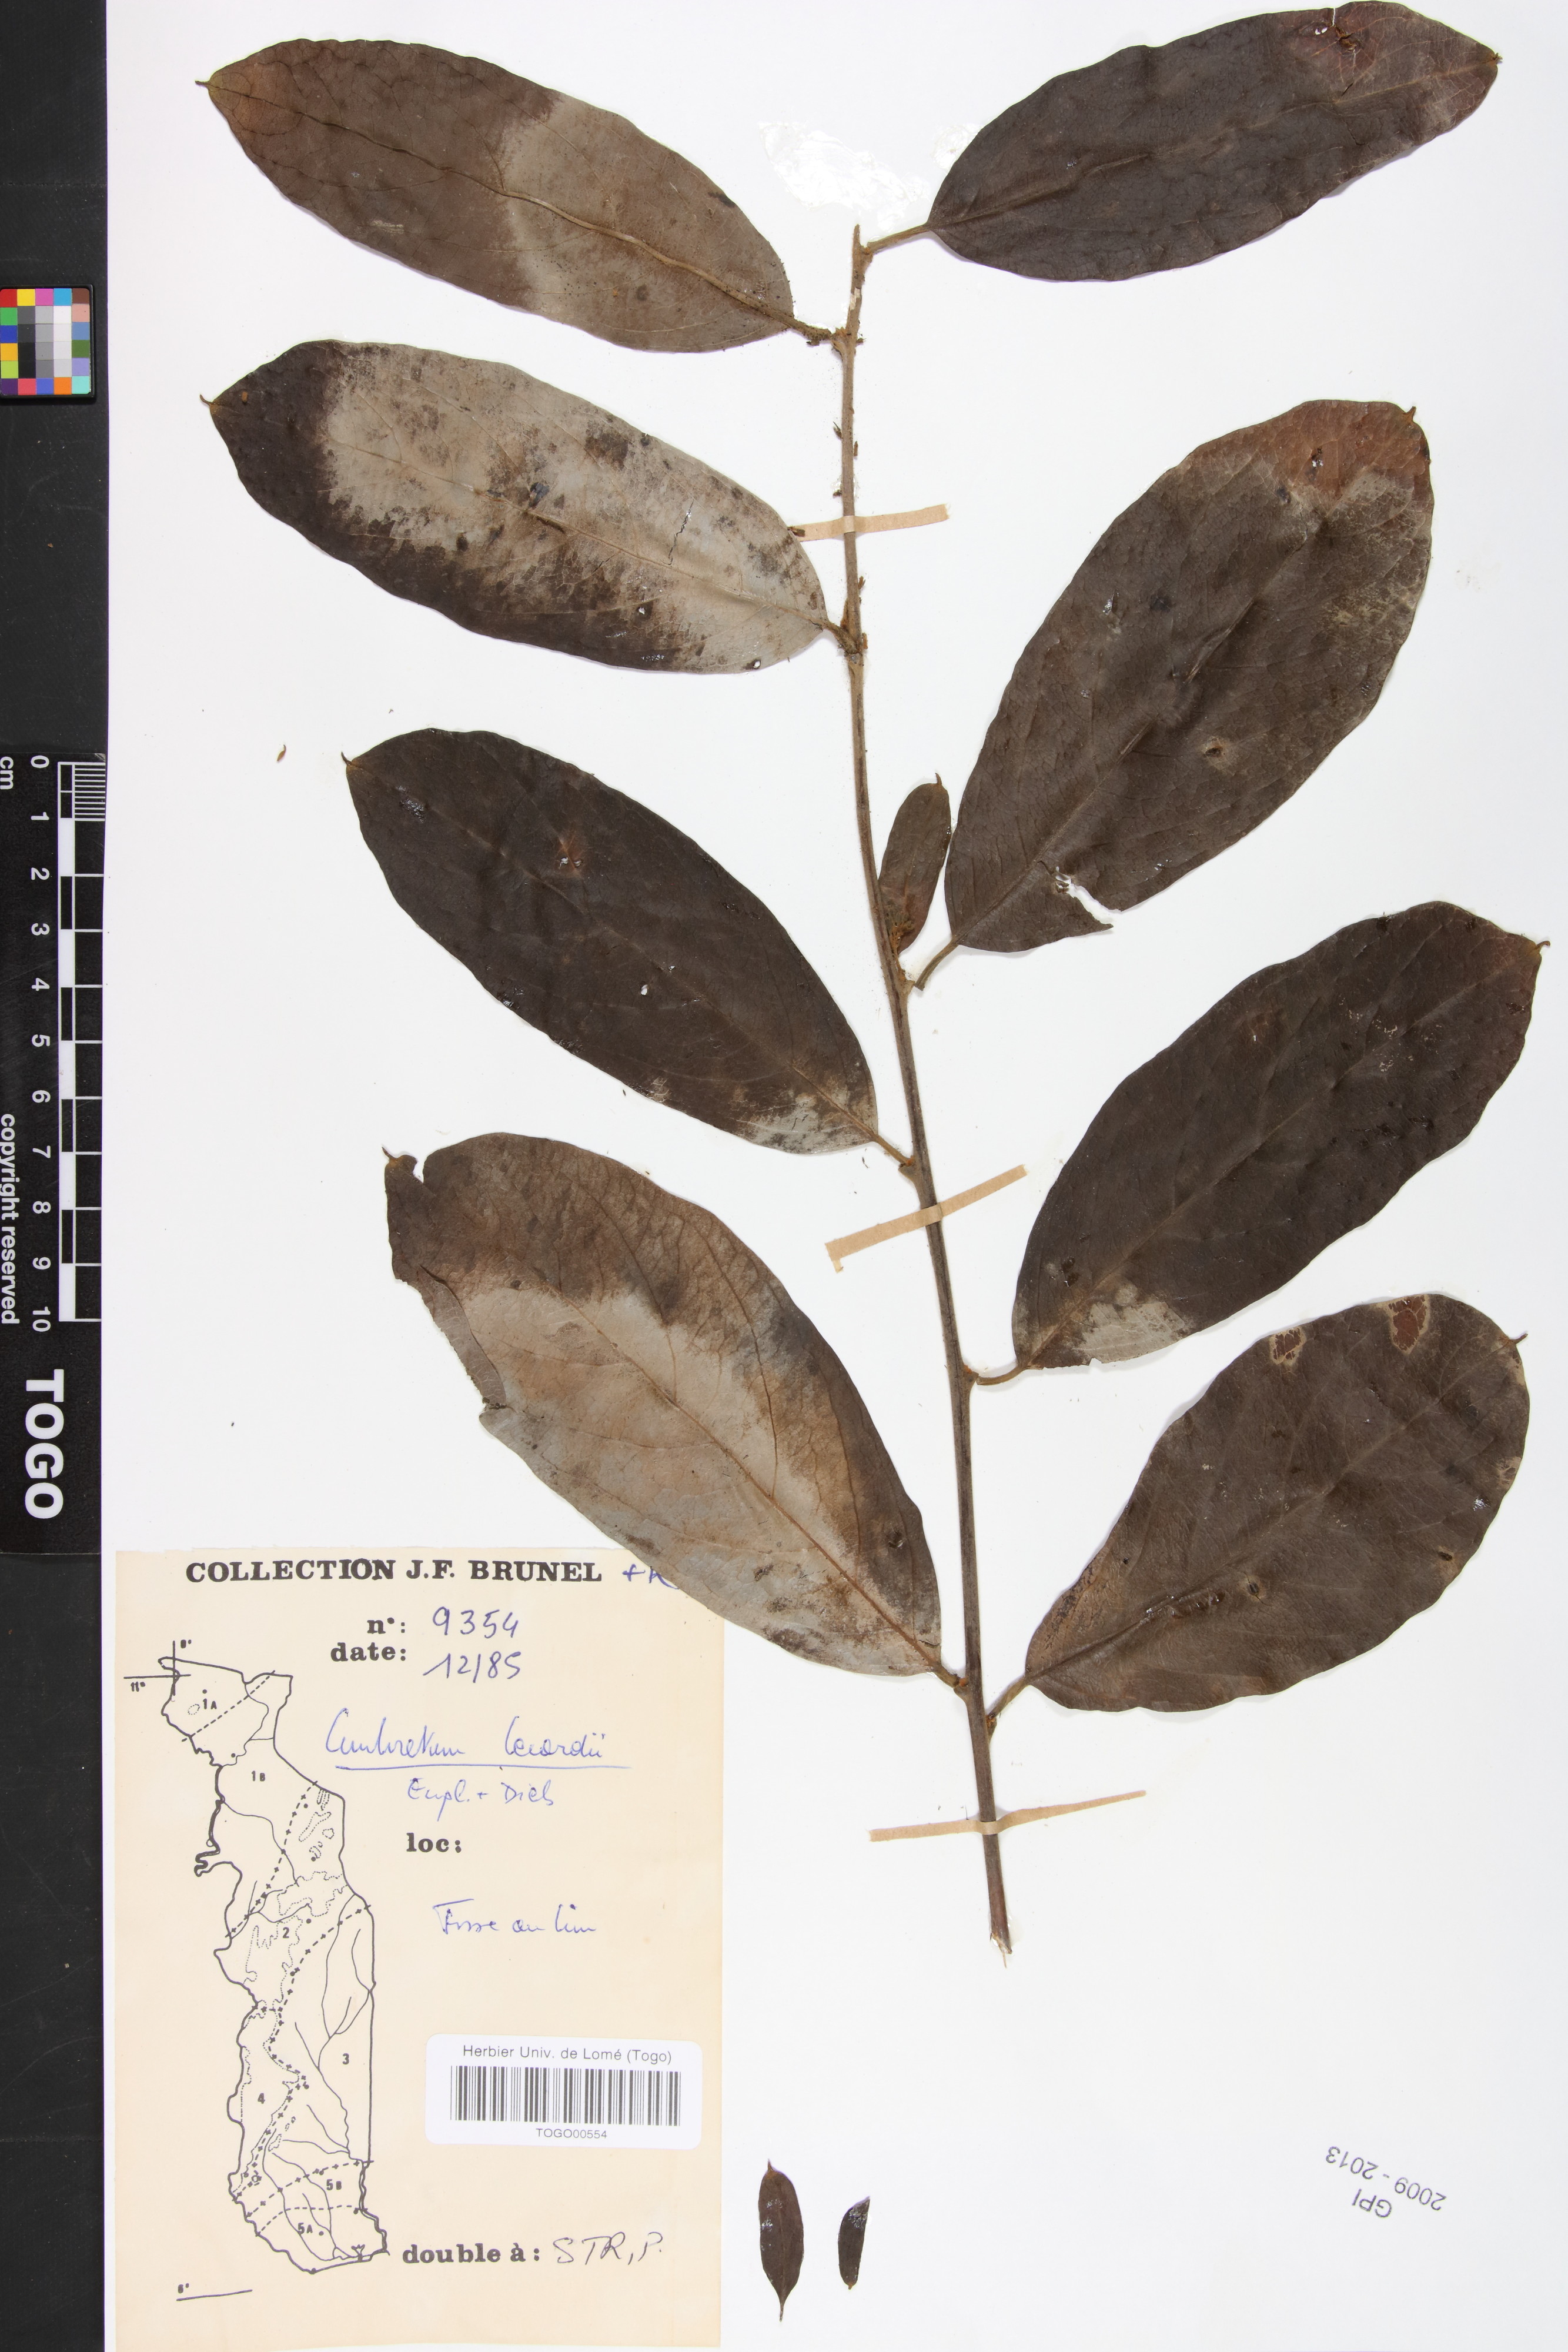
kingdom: Plantae
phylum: Tracheophyta
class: Magnoliopsida
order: Myrtales
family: Combretaceae
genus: Combretum
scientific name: Combretum lecardii
